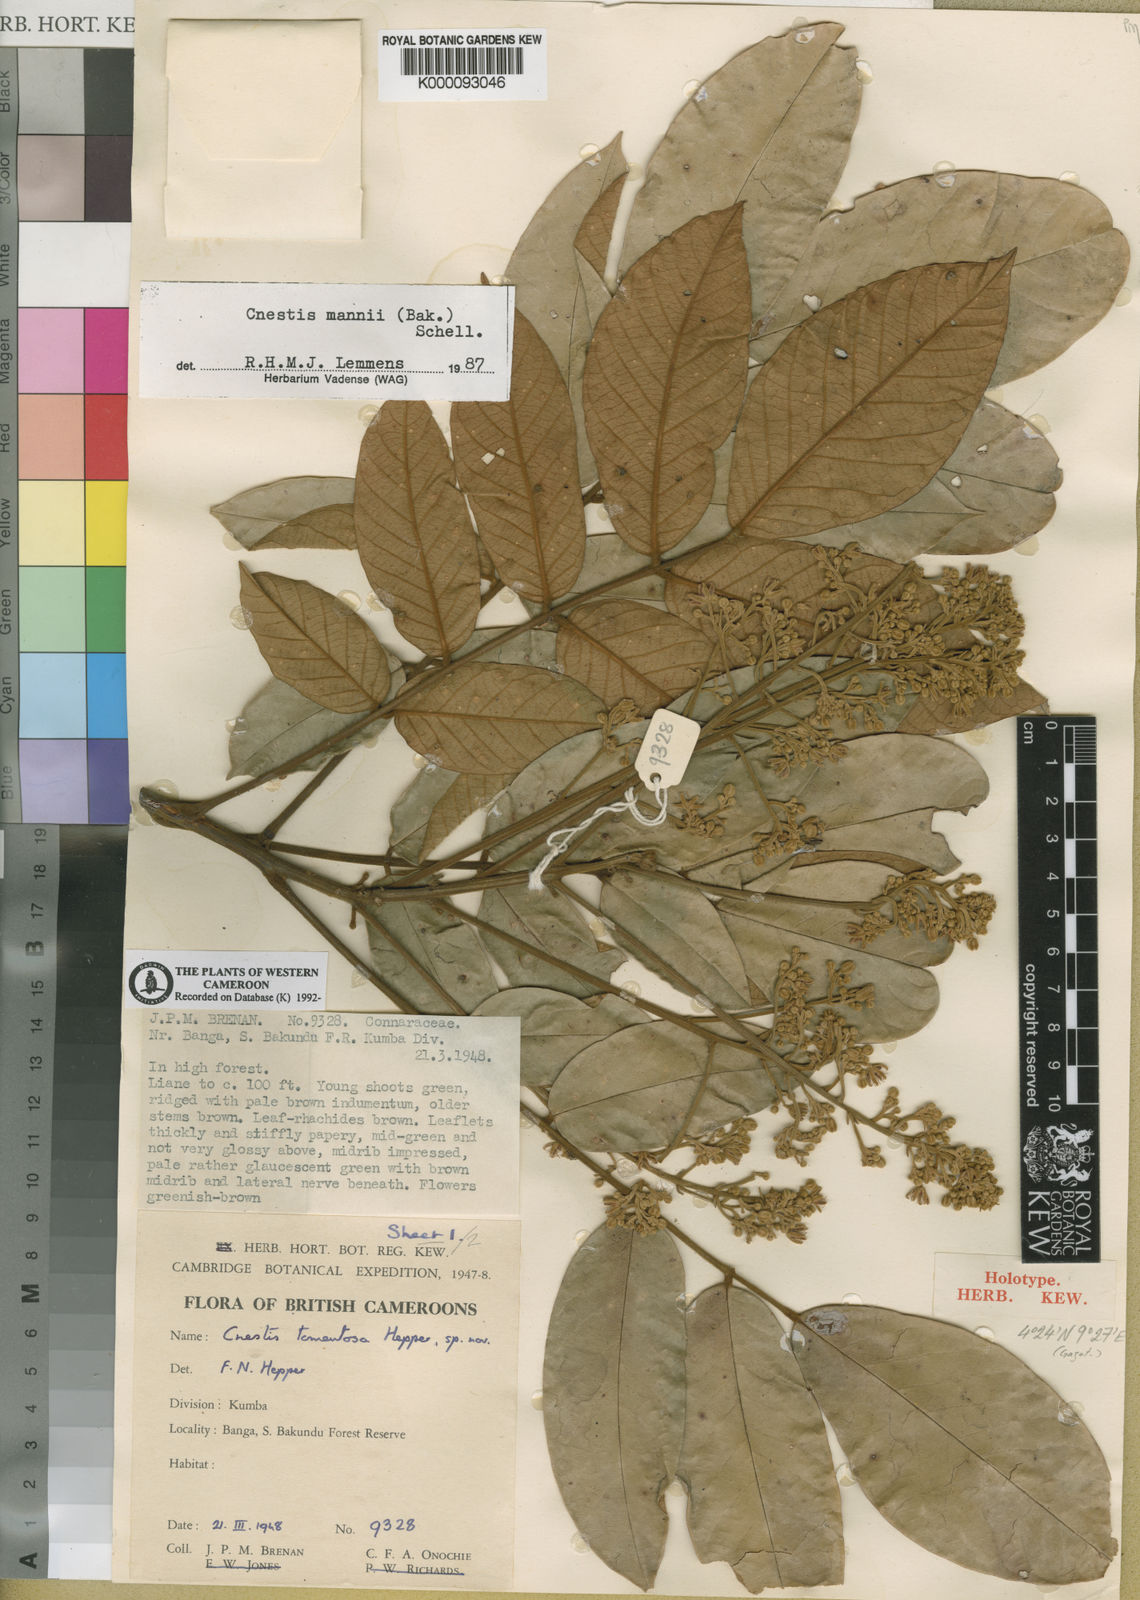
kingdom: Plantae
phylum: Tracheophyta
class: Magnoliopsida
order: Oxalidales
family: Connaraceae
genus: Cnestis
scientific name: Cnestis mannii
